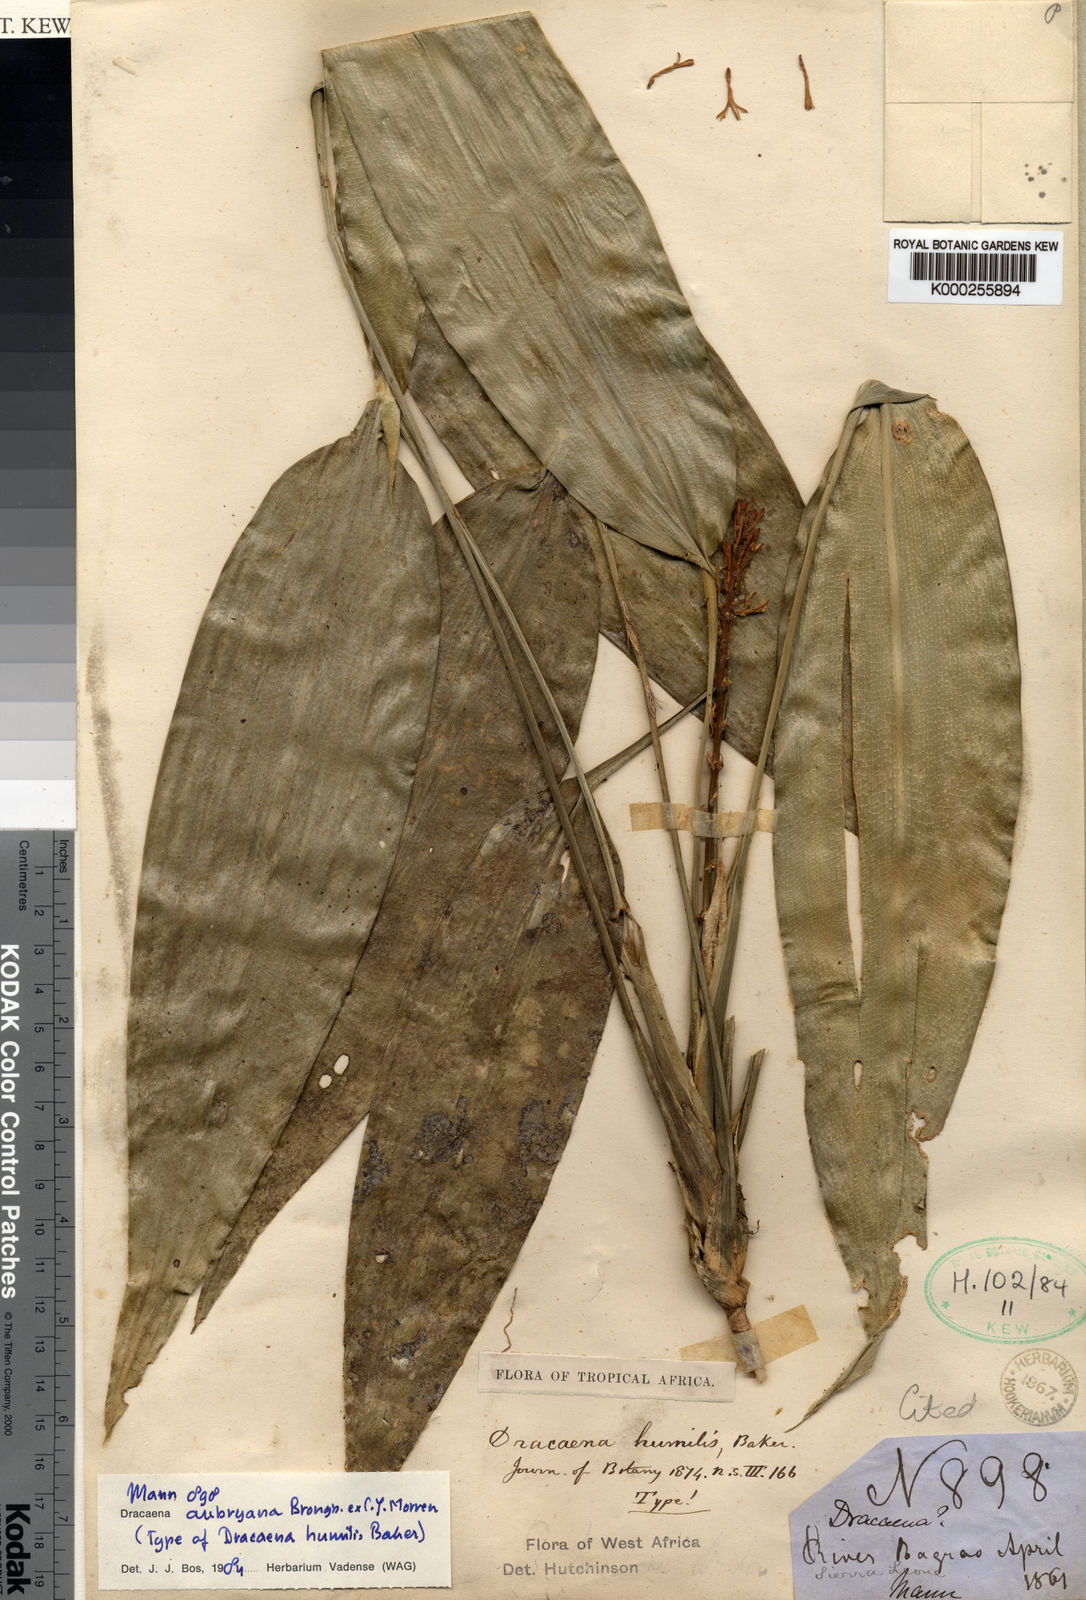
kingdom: Plantae
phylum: Tracheophyta
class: Liliopsida
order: Asparagales
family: Asparagaceae
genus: Dracaena
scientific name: Dracaena aubryana
